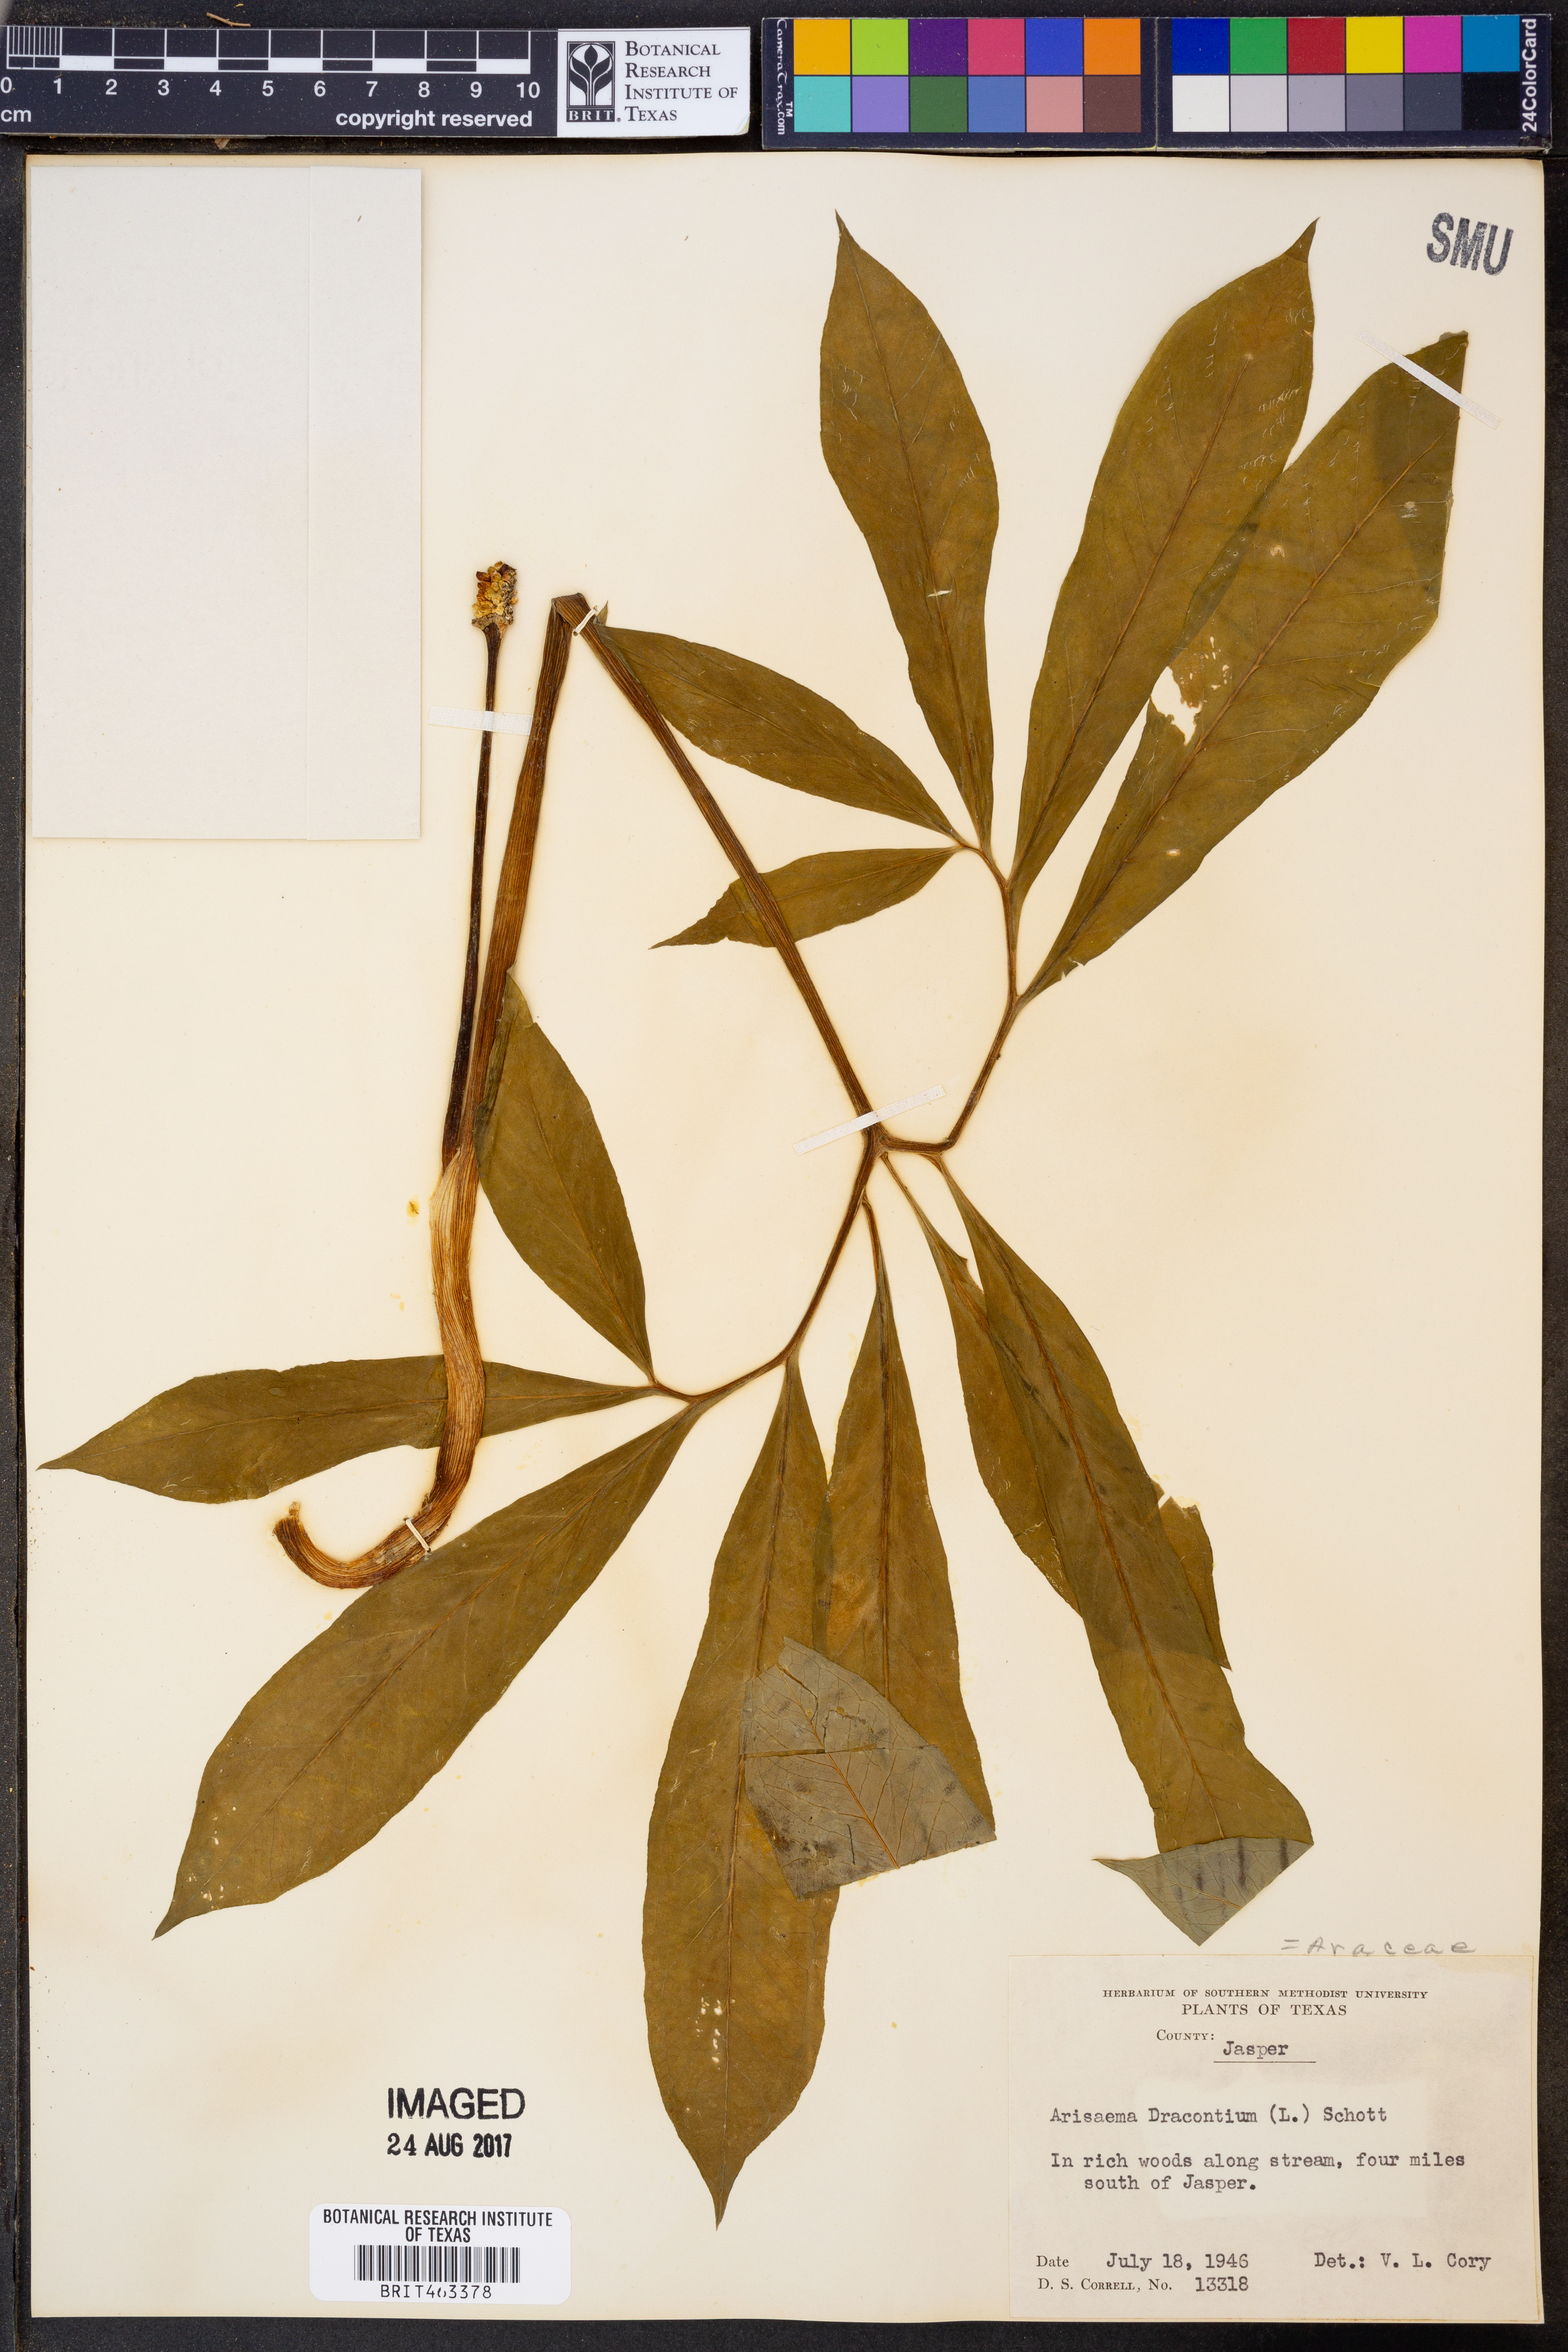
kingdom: Plantae
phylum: Tracheophyta
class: Liliopsida
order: Alismatales
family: Araceae
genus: Arisaema
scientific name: Arisaema dracontium
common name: Dragon-arum
